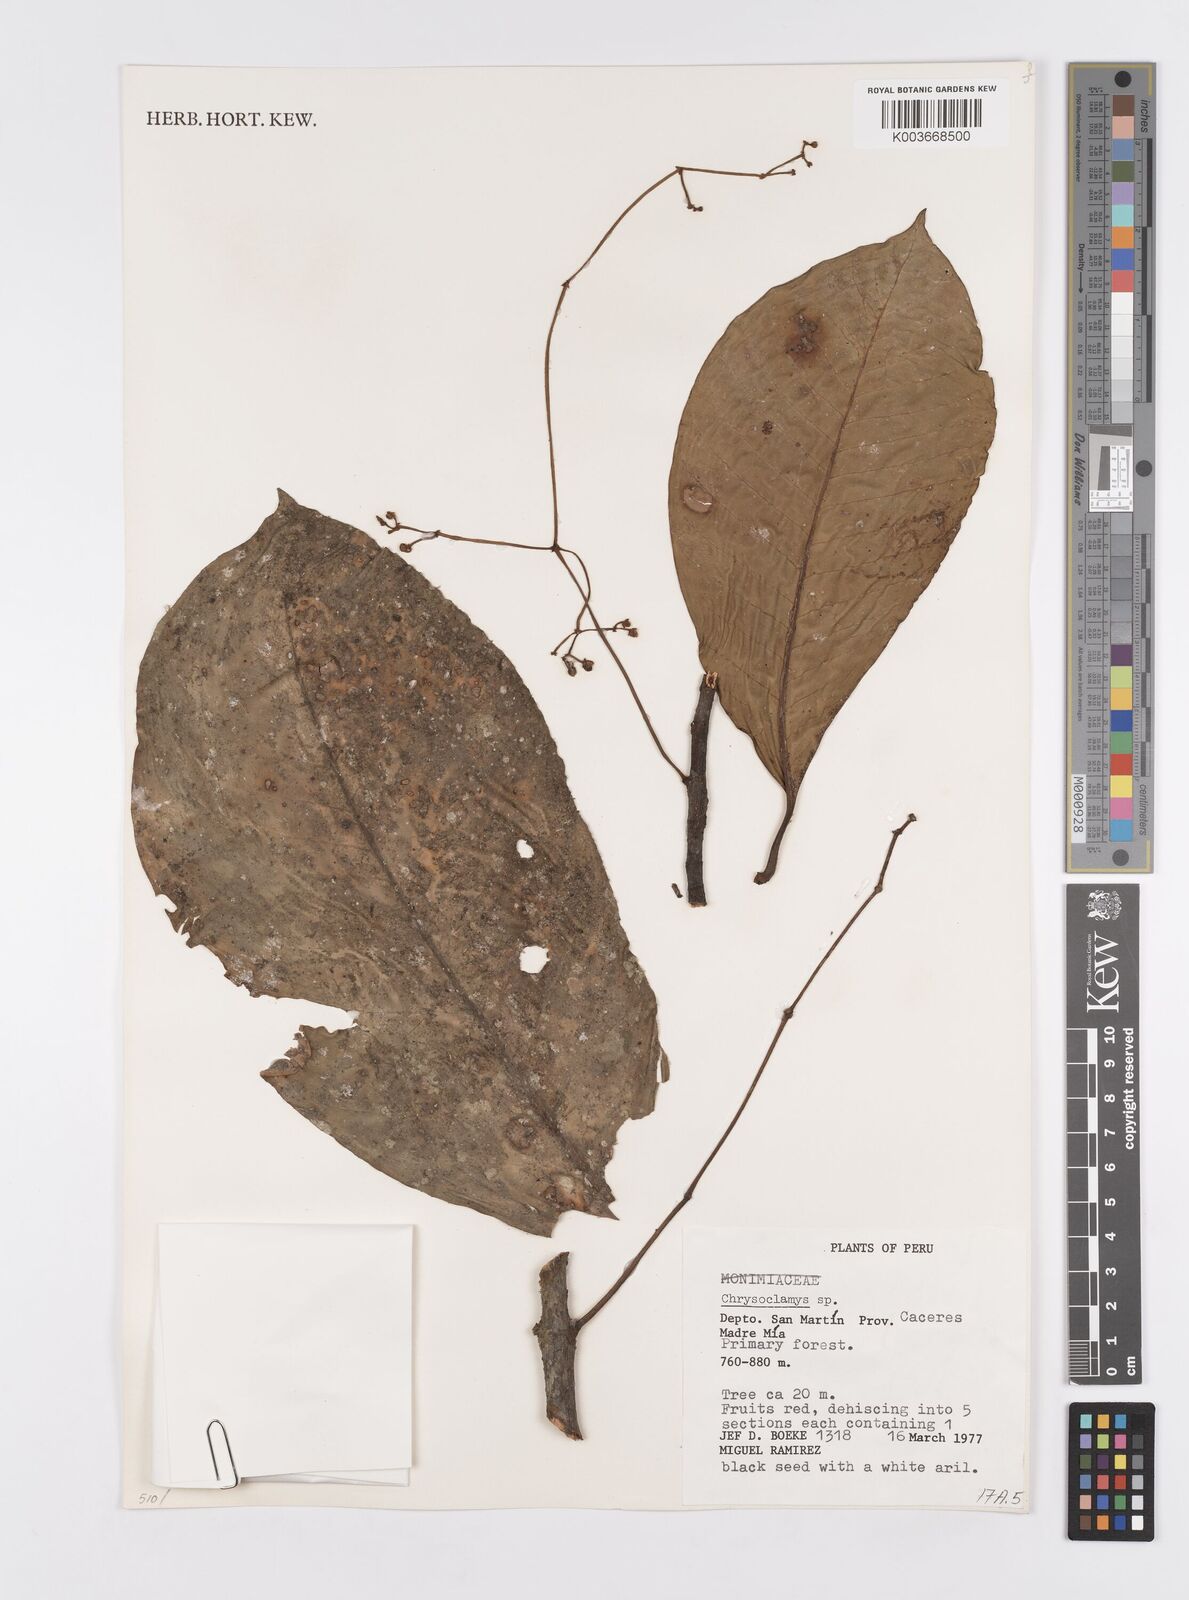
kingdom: Plantae
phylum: Tracheophyta
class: Magnoliopsida
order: Malpighiales
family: Clusiaceae
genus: Chrysochlamys
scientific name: Chrysochlamys
